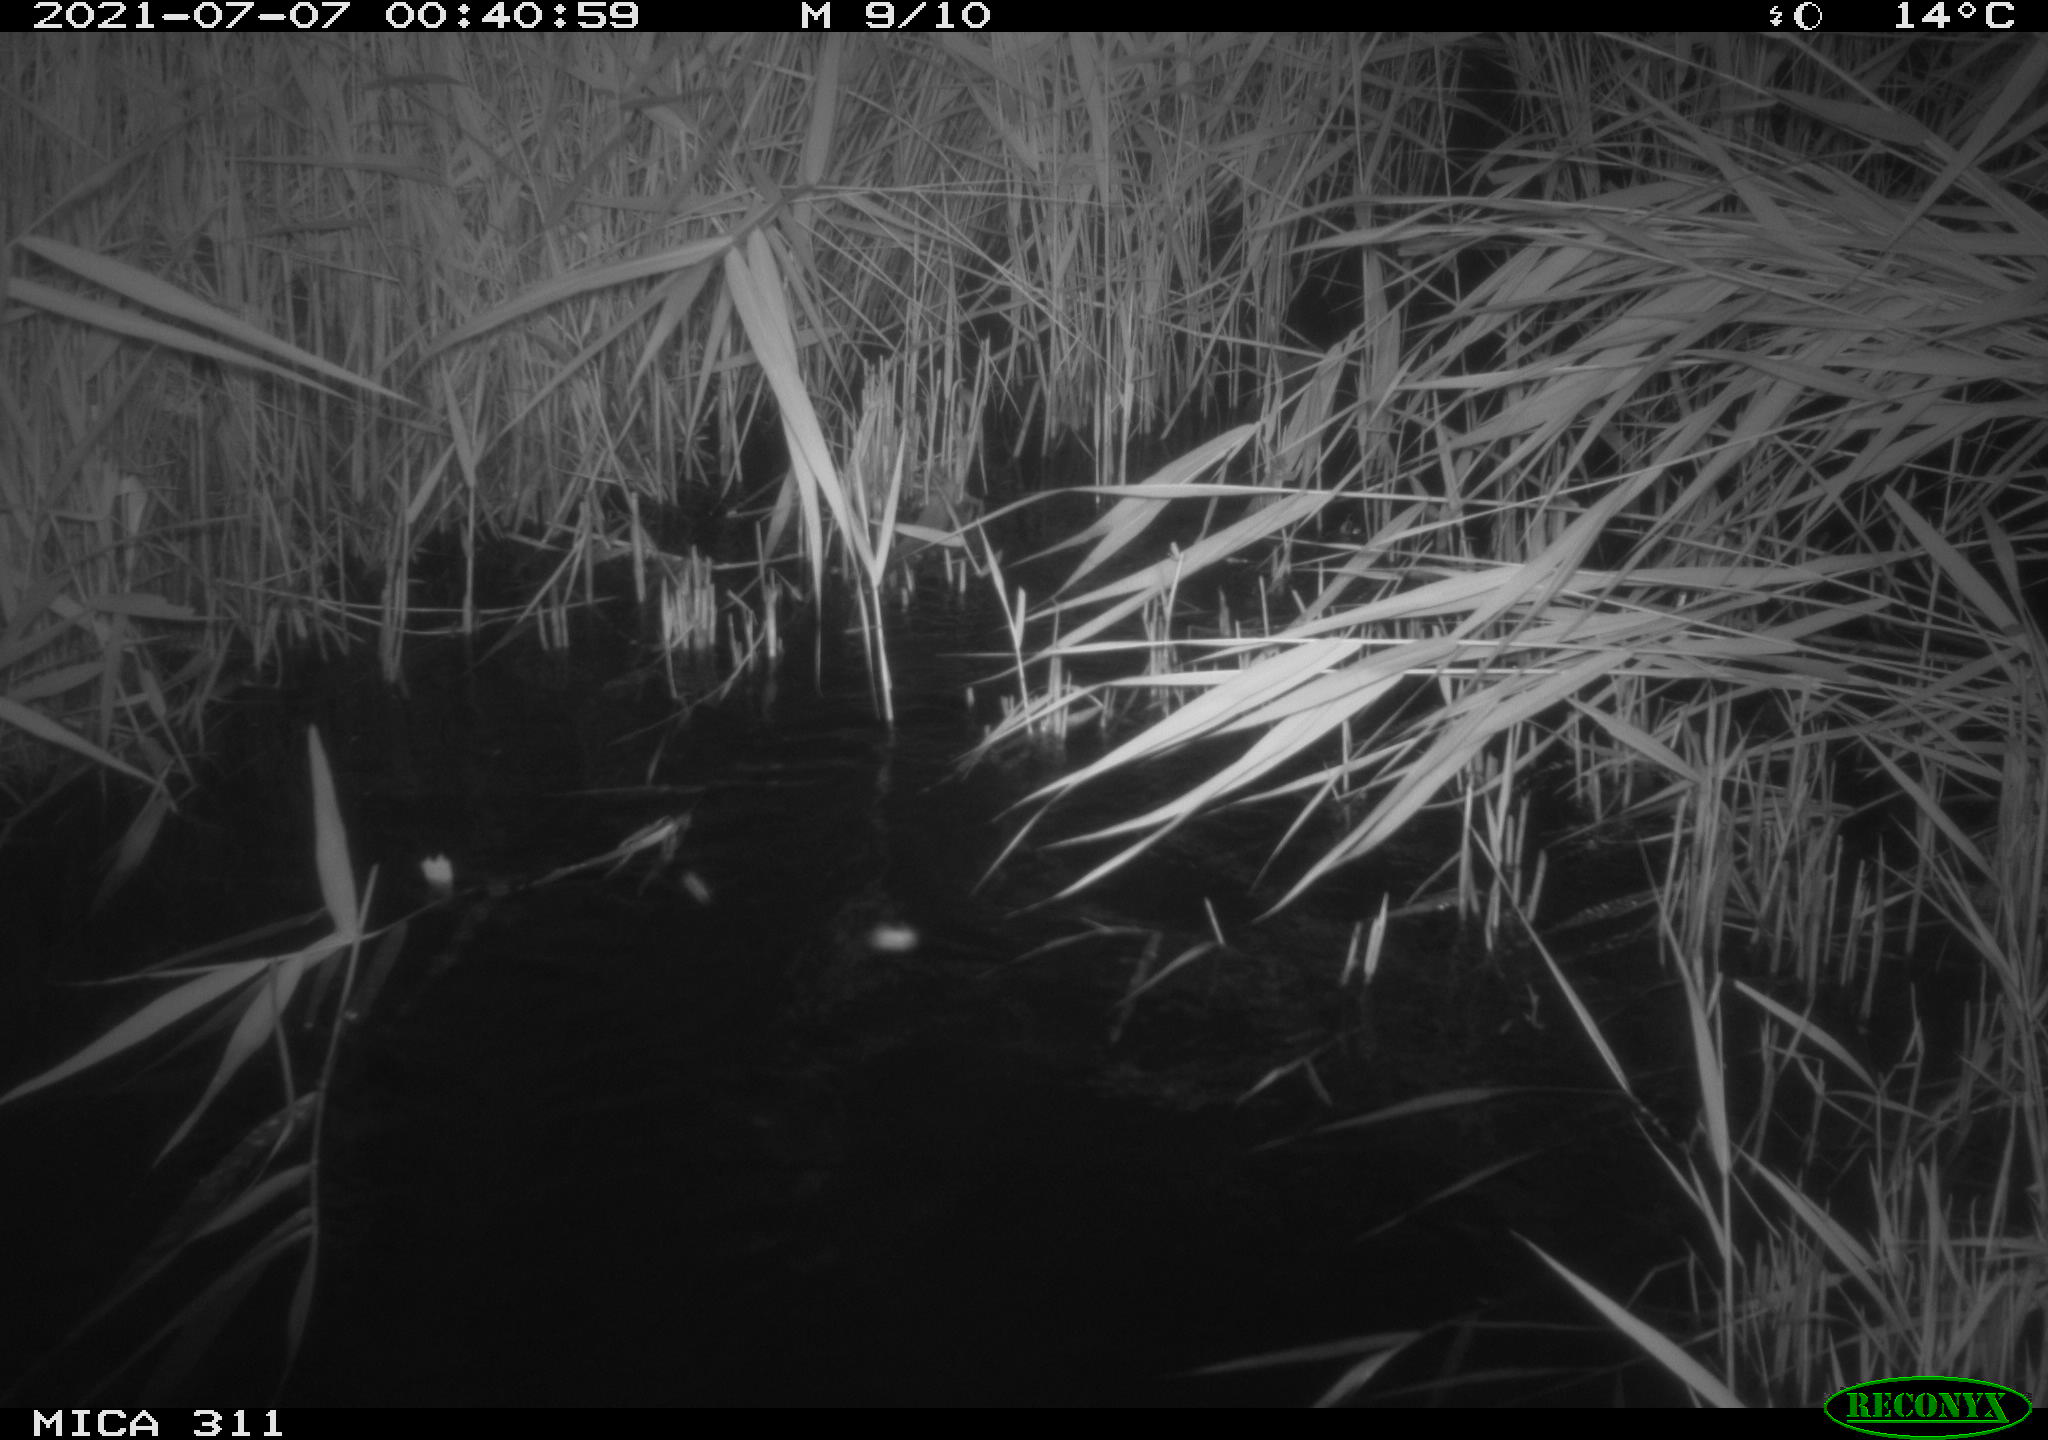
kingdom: Animalia
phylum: Chordata
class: Mammalia
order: Rodentia
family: Cricetidae
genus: Ondatra
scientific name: Ondatra zibethicus
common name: Muskrat
